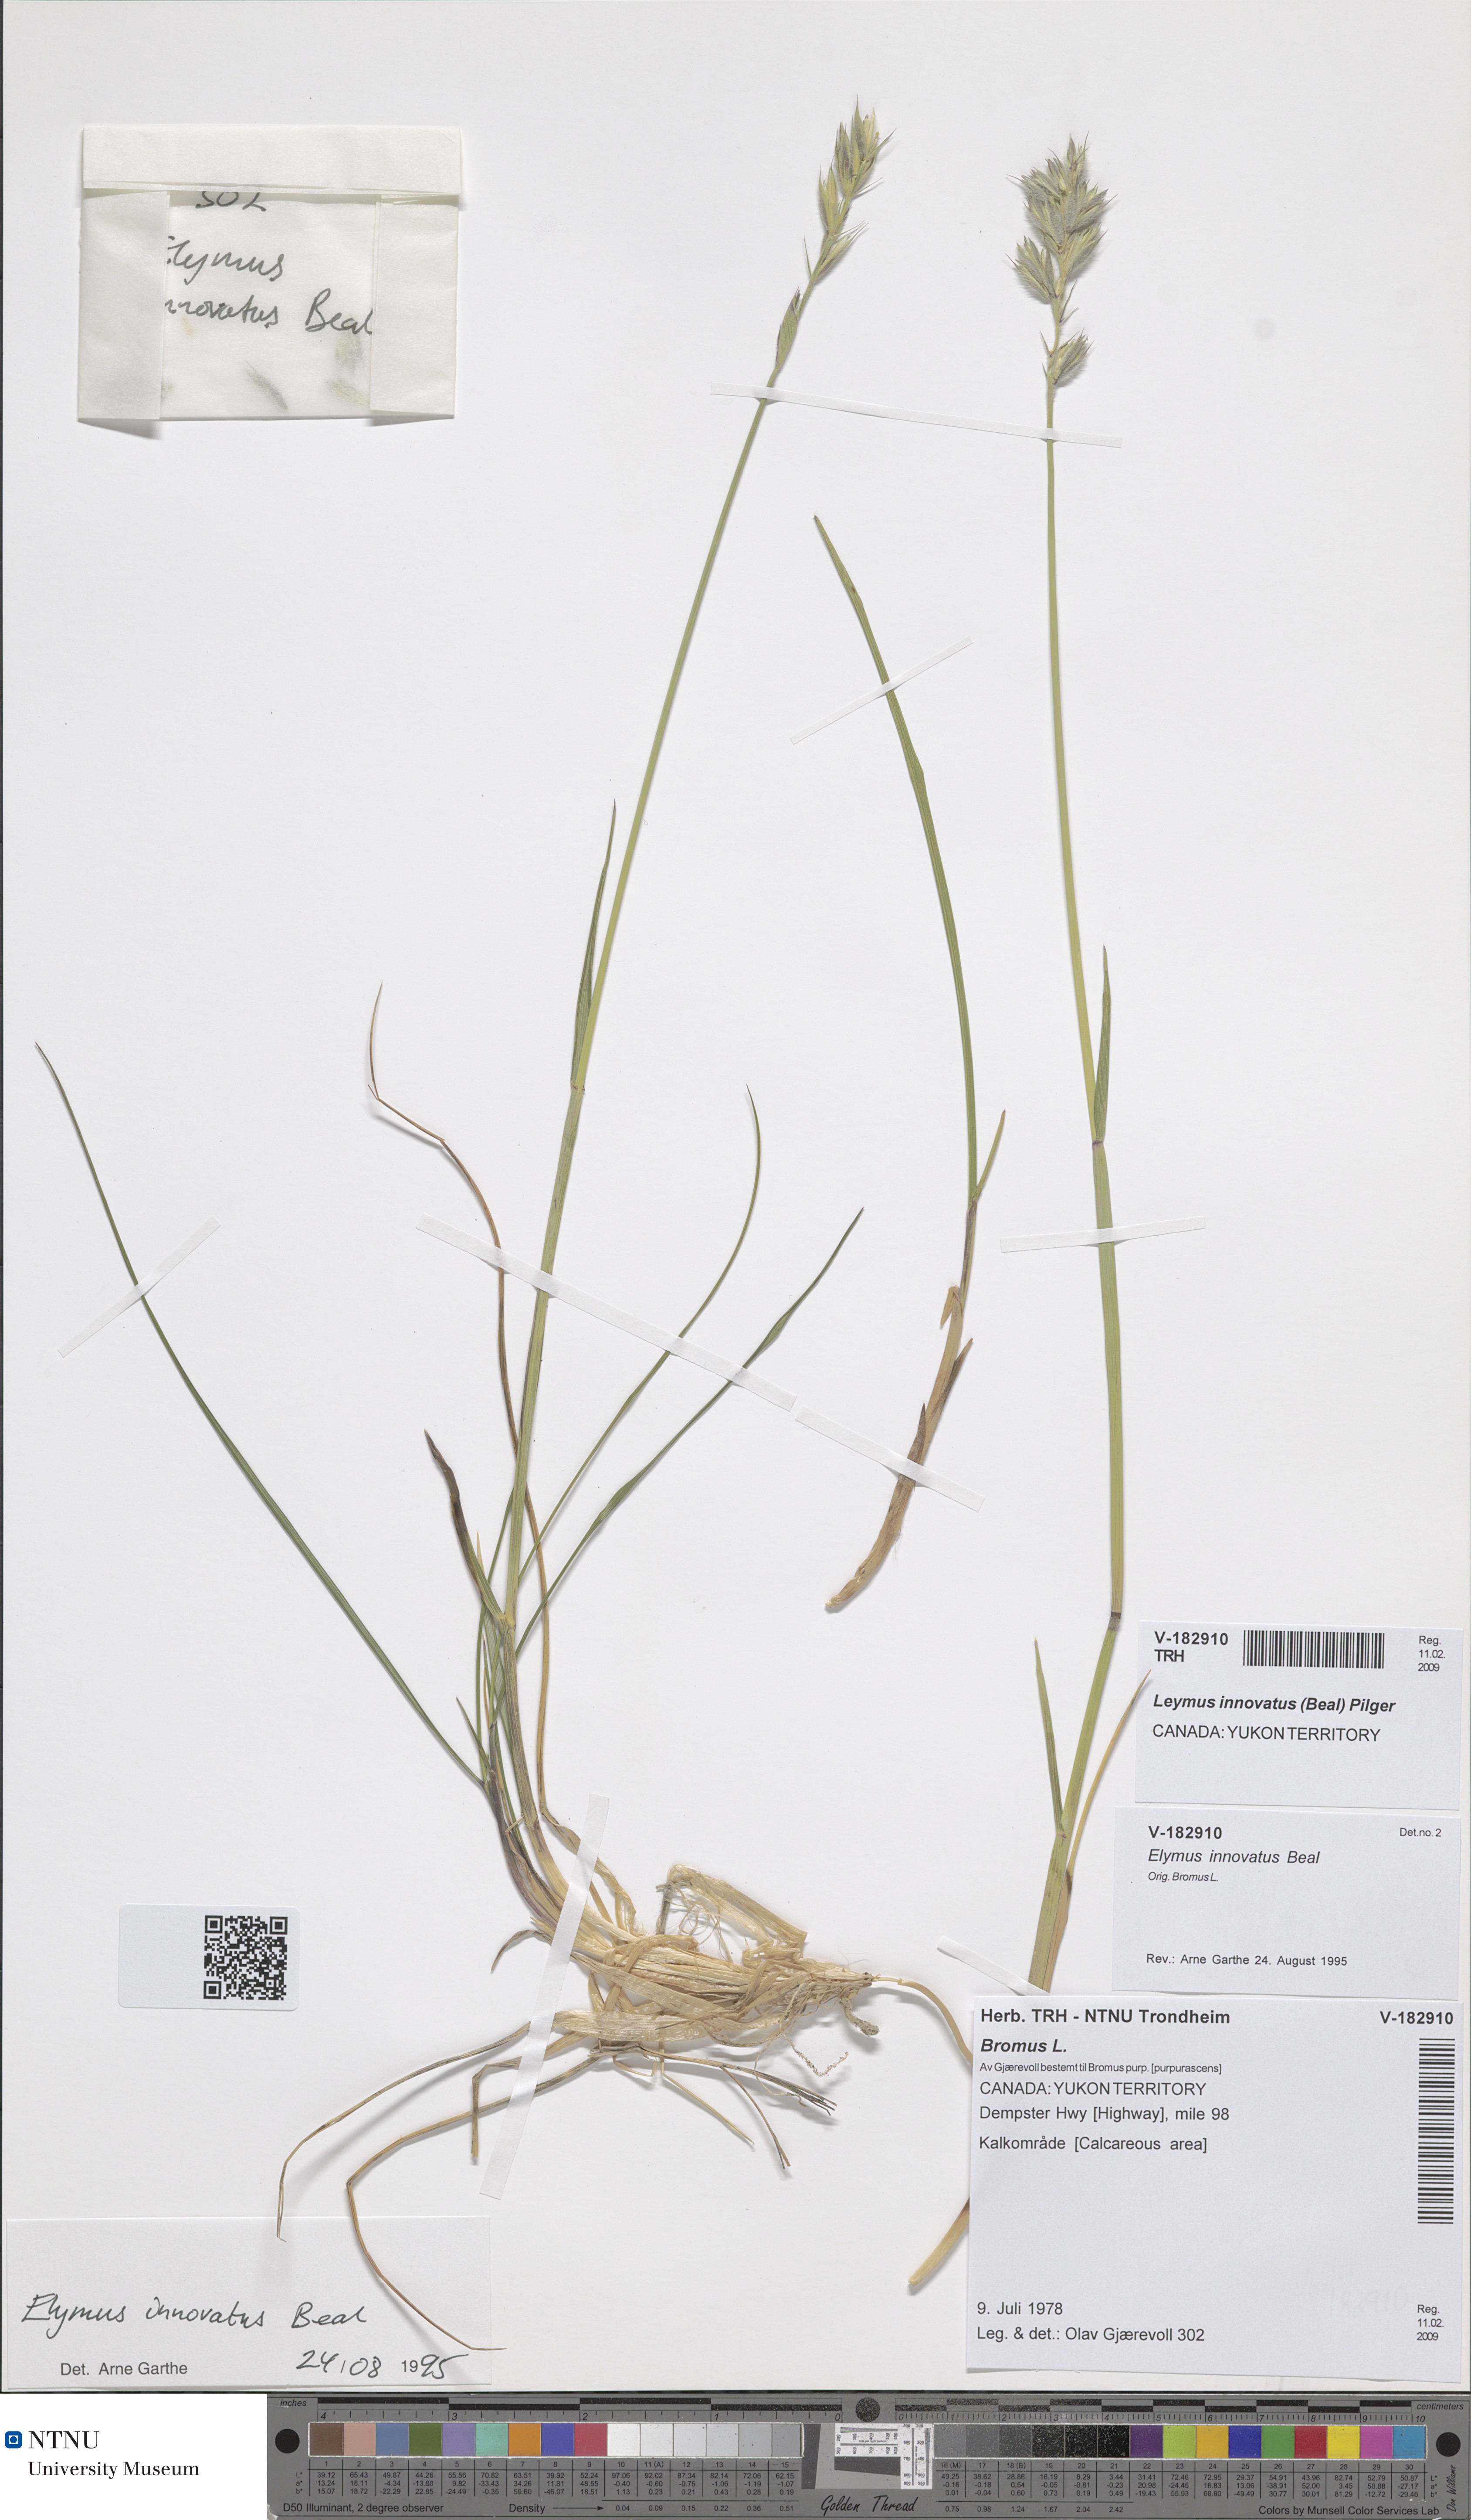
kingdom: Plantae
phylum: Tracheophyta
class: Liliopsida
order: Poales
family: Poaceae
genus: Leymus
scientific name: Leymus innovatus
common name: Boreal wild rye
